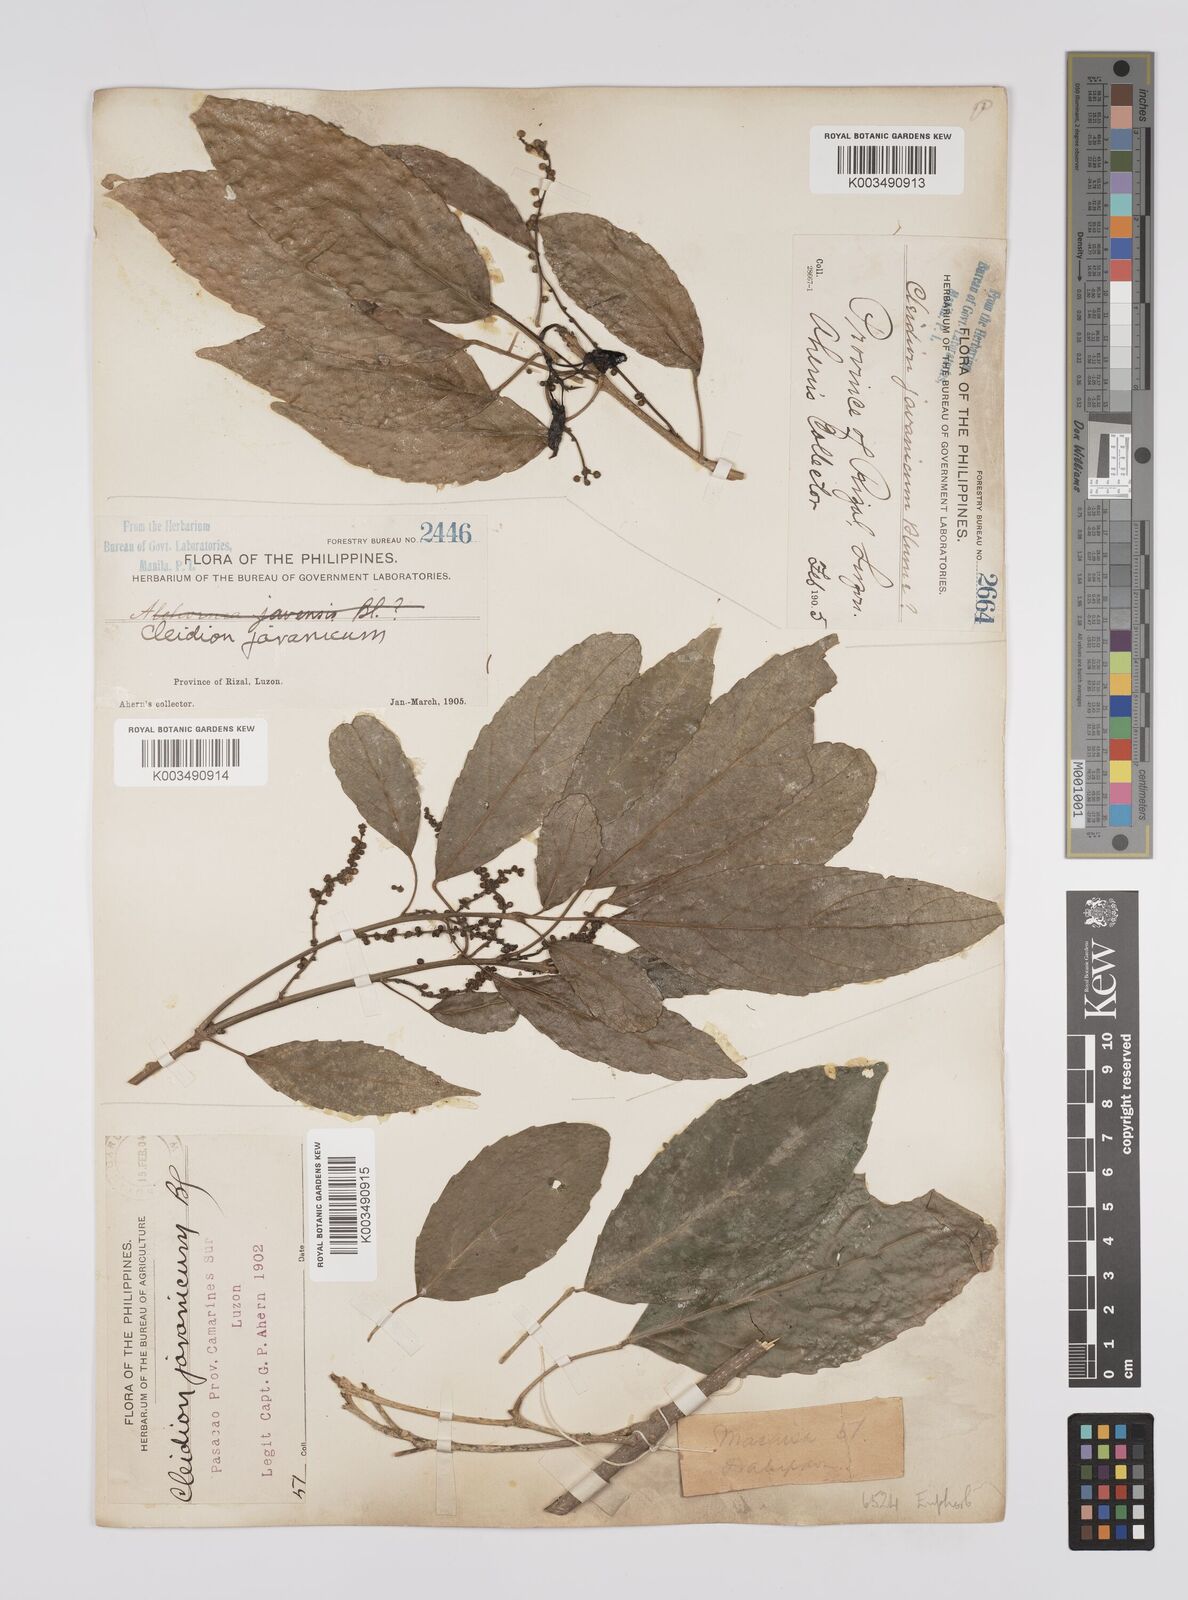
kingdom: Plantae
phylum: Tracheophyta
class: Magnoliopsida
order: Malpighiales
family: Euphorbiaceae
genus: Cleidion
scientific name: Cleidion javanicum
